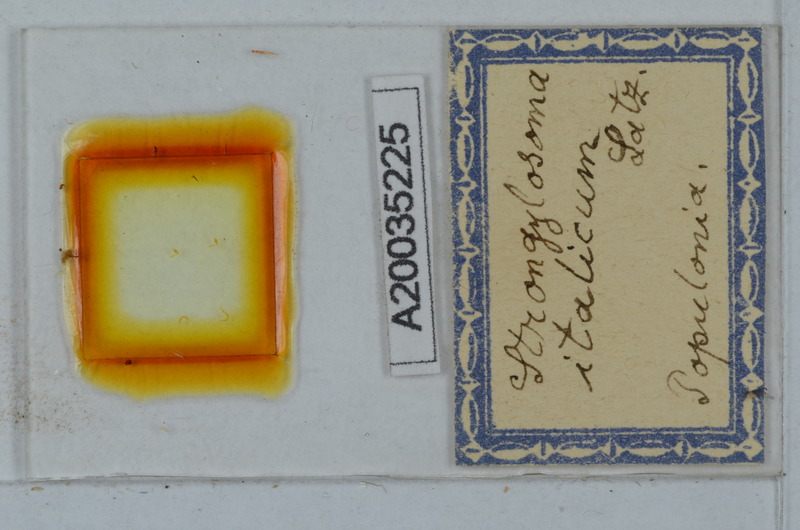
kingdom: Animalia
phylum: Arthropoda
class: Diplopoda
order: Polydesmida
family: Paradoxosomatidae
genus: Strongylosoma
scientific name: Strongylosoma italica
